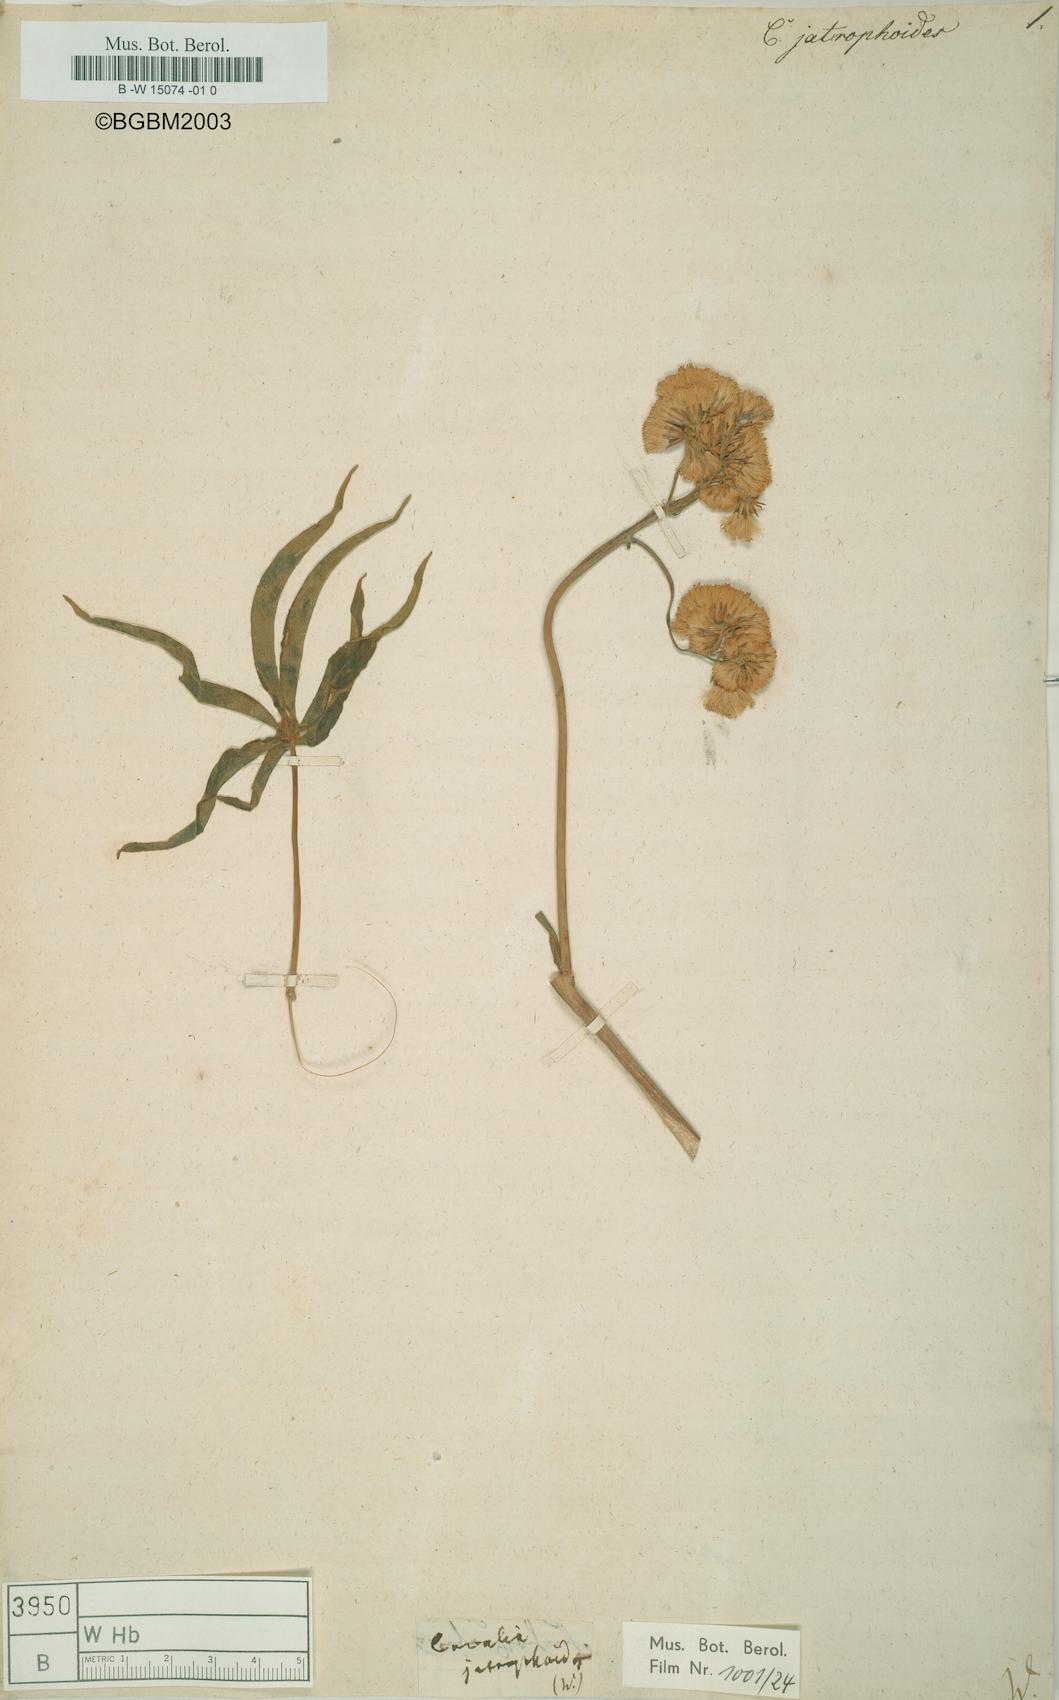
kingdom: Plantae
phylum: Tracheophyta
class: Magnoliopsida
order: Asterales
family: Asteraceae
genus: Digitacalia
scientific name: Digitacalia jatrophoides
